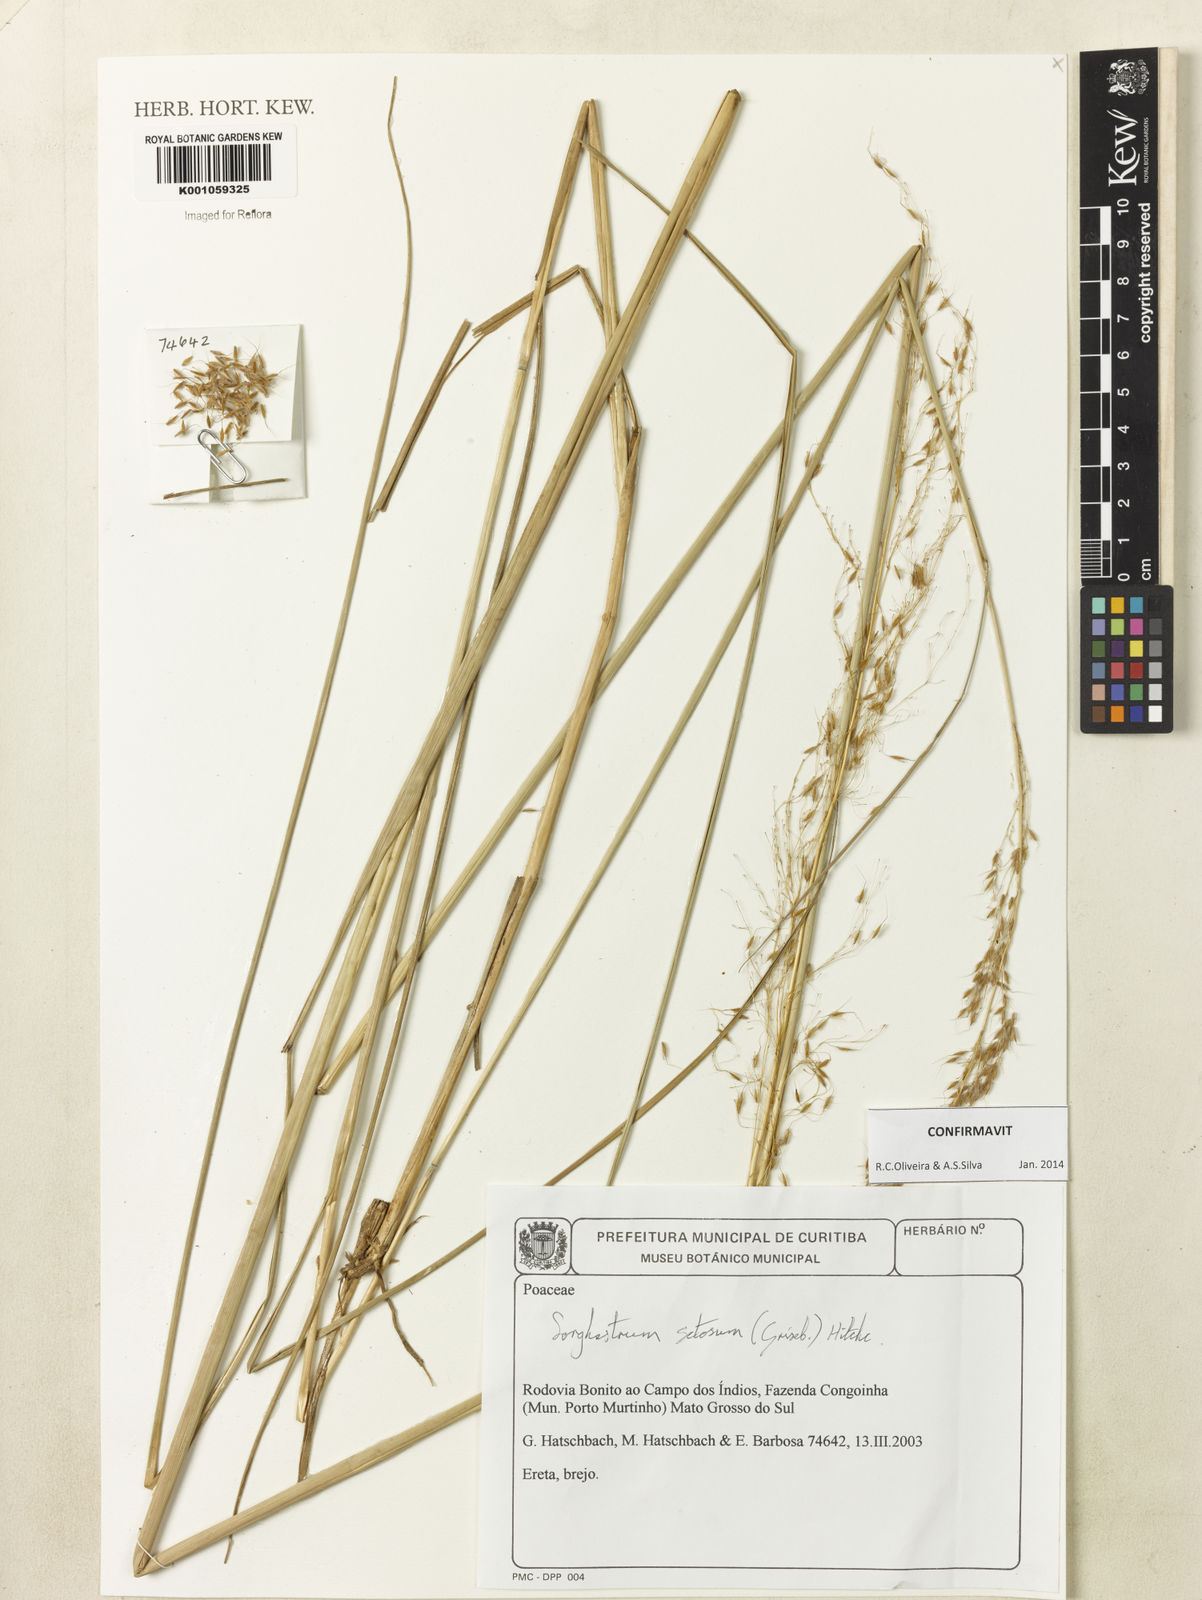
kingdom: Plantae
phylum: Tracheophyta
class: Liliopsida
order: Poales
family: Poaceae
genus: Sorghastrum
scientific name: Sorghastrum setosum
